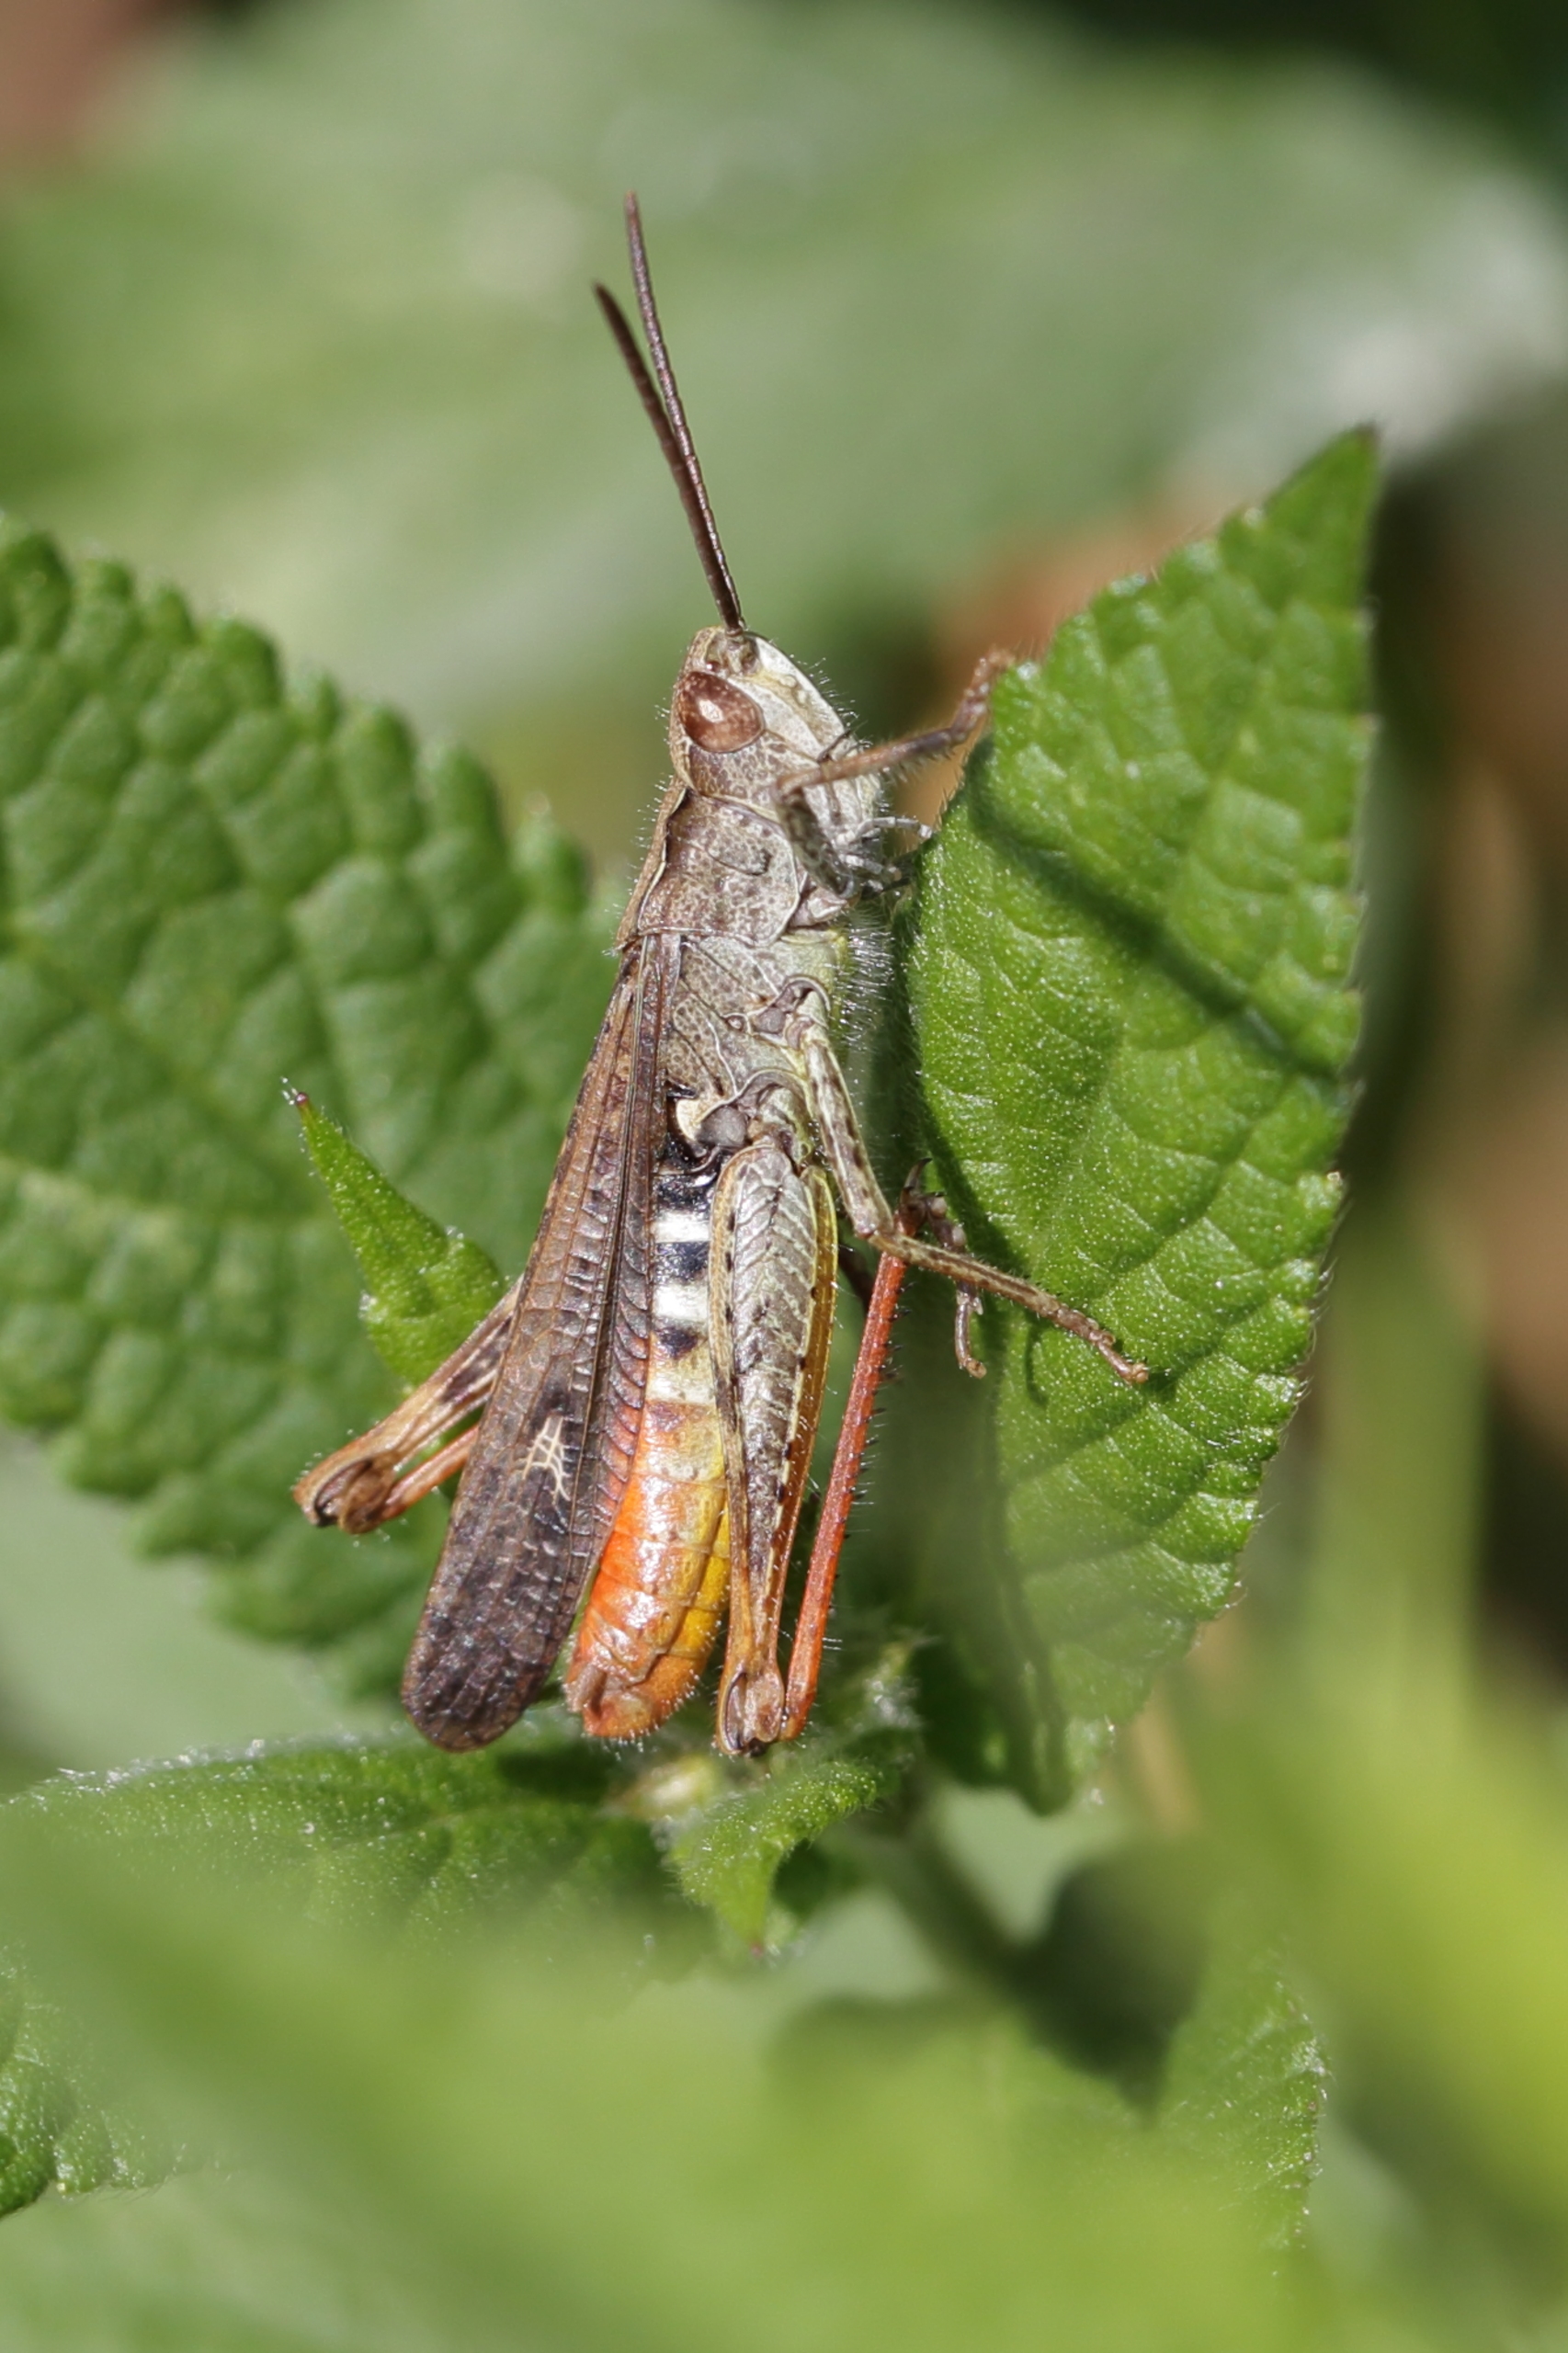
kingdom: Animalia
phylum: Arthropoda
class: Insecta
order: Orthoptera
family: Acrididae
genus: Chorthippus
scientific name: Chorthippus brunneus
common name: Almindelig markgræshoppe
